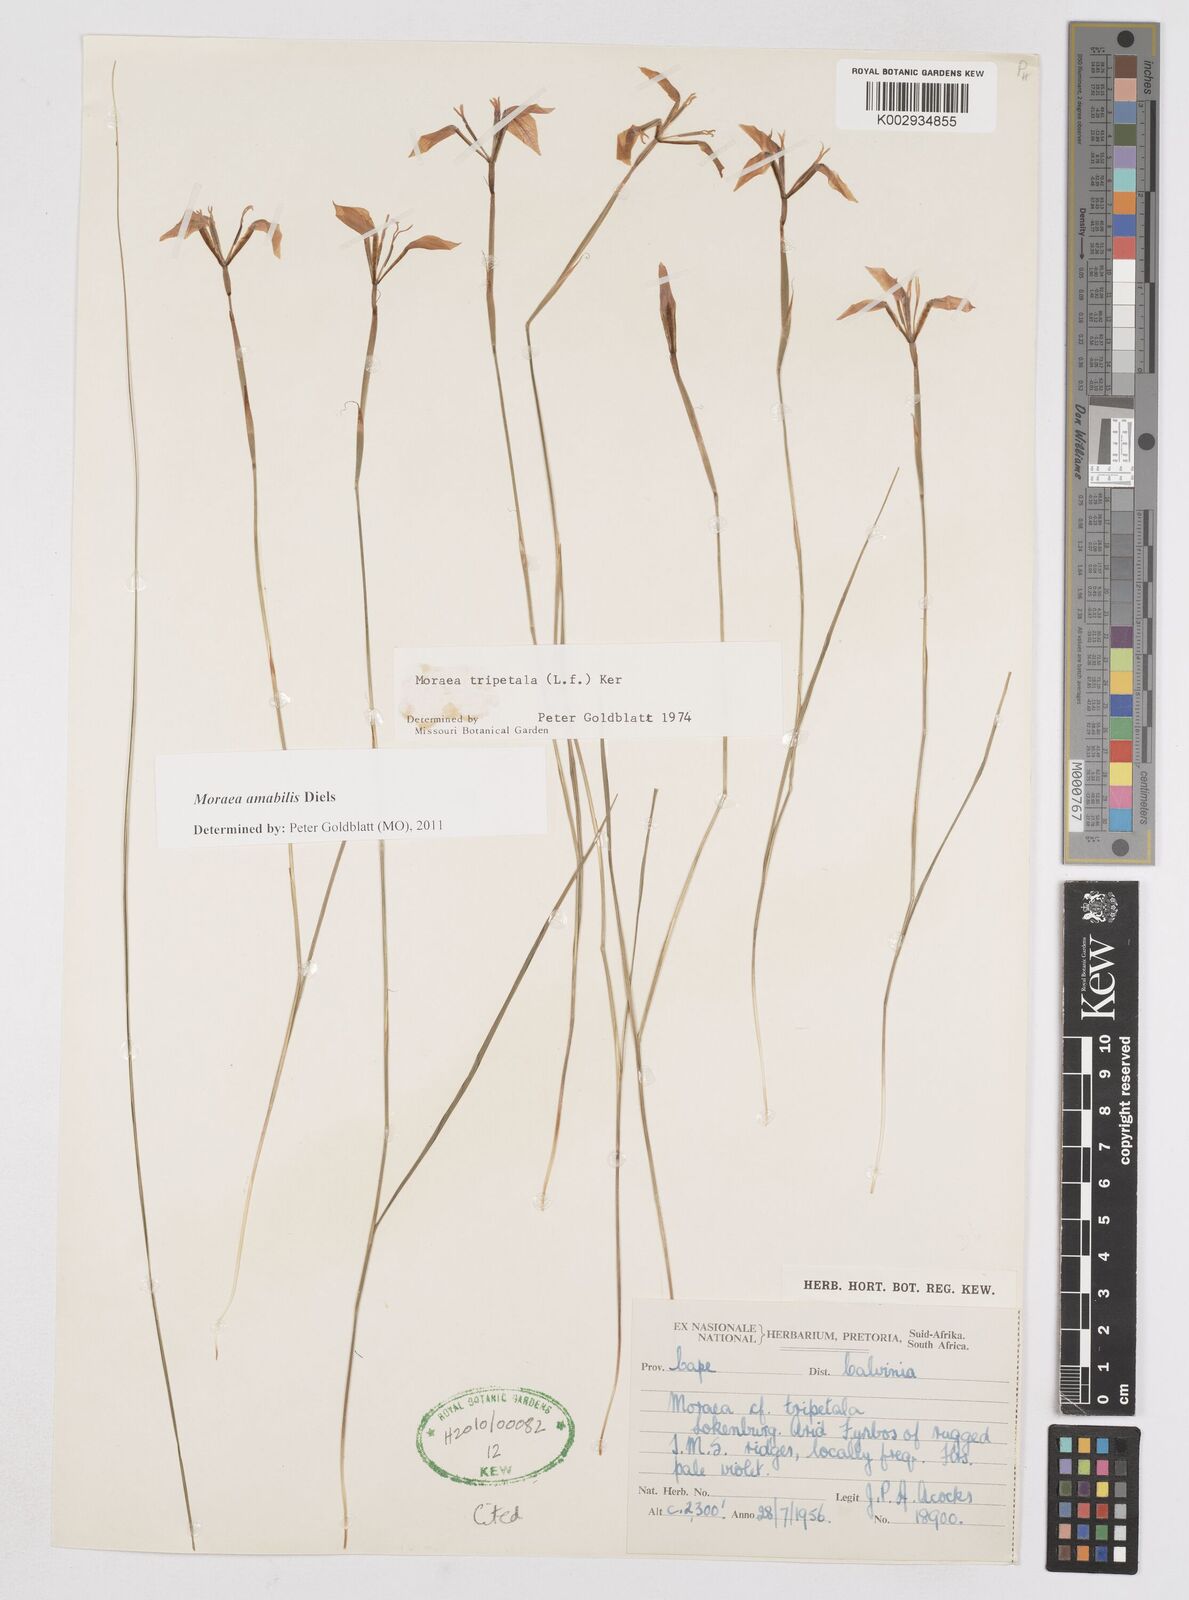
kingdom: Plantae
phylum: Tracheophyta
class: Liliopsida
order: Asparagales
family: Iridaceae
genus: Moraea
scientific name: Moraea amabilis
